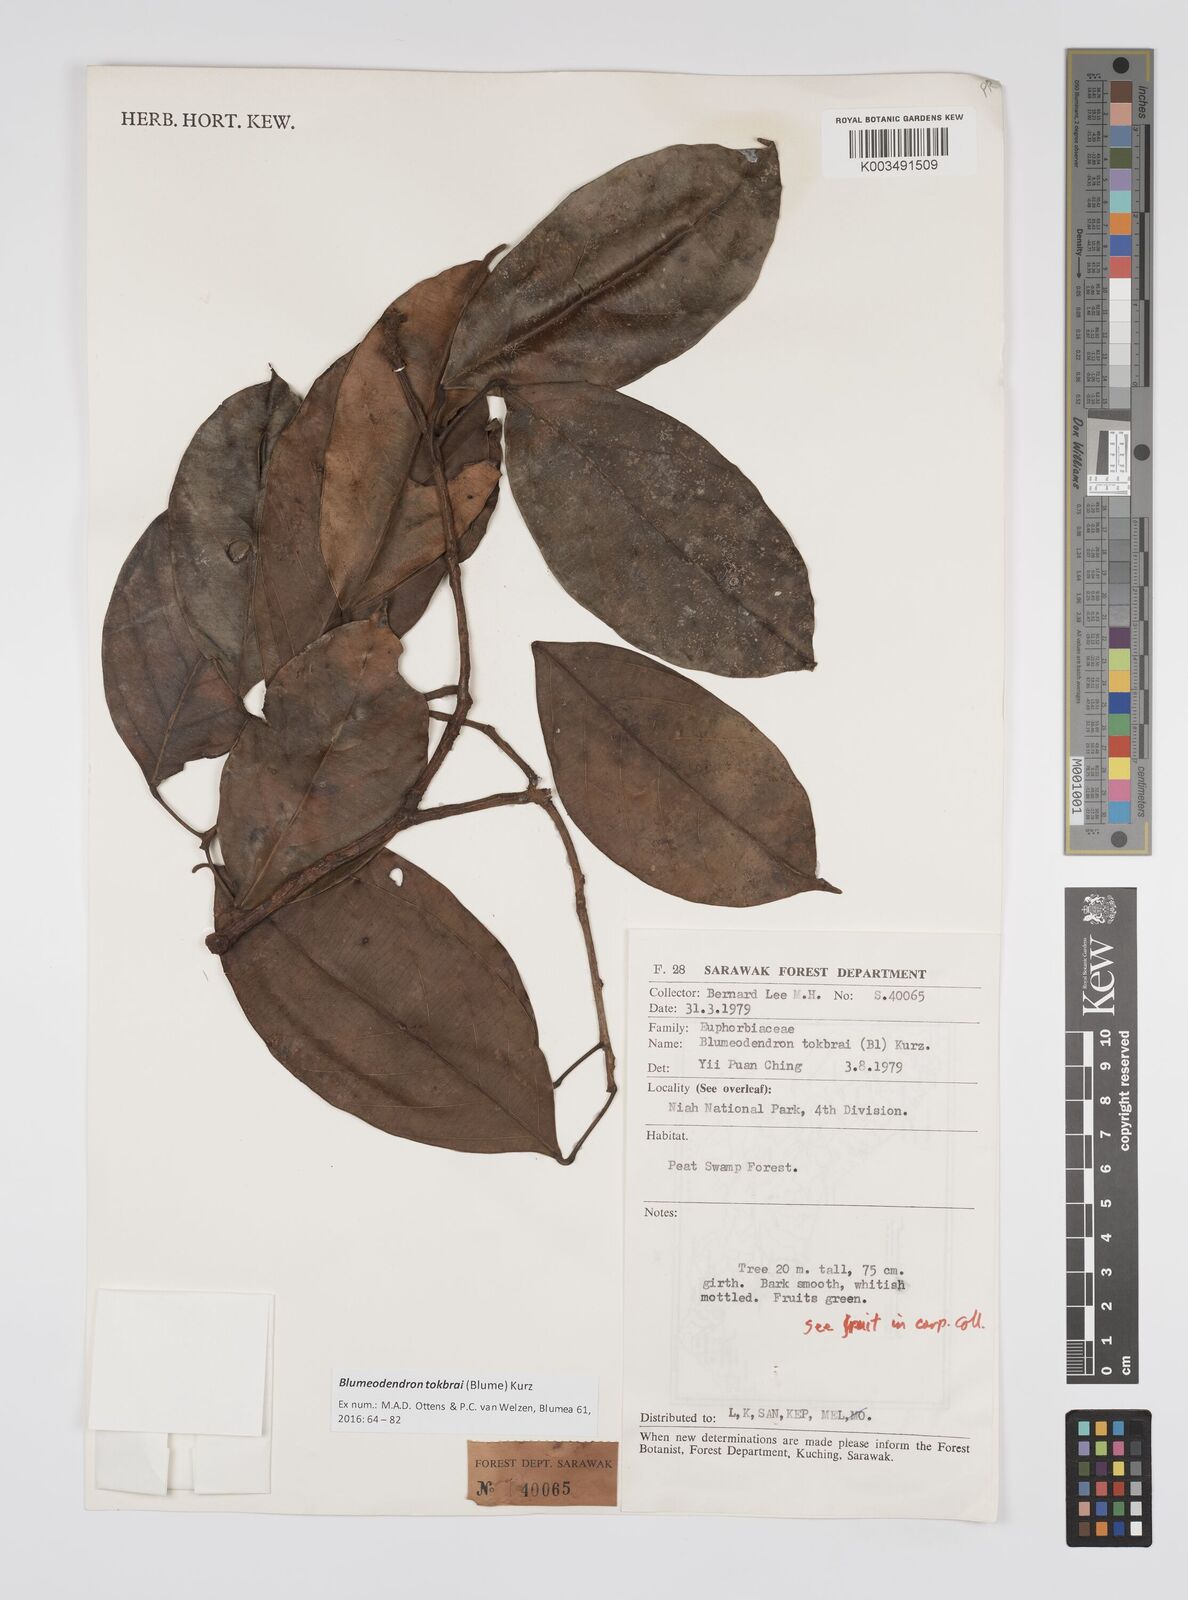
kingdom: Plantae
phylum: Tracheophyta
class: Magnoliopsida
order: Malpighiales
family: Euphorbiaceae
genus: Blumeodendron
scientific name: Blumeodendron tokbrai
